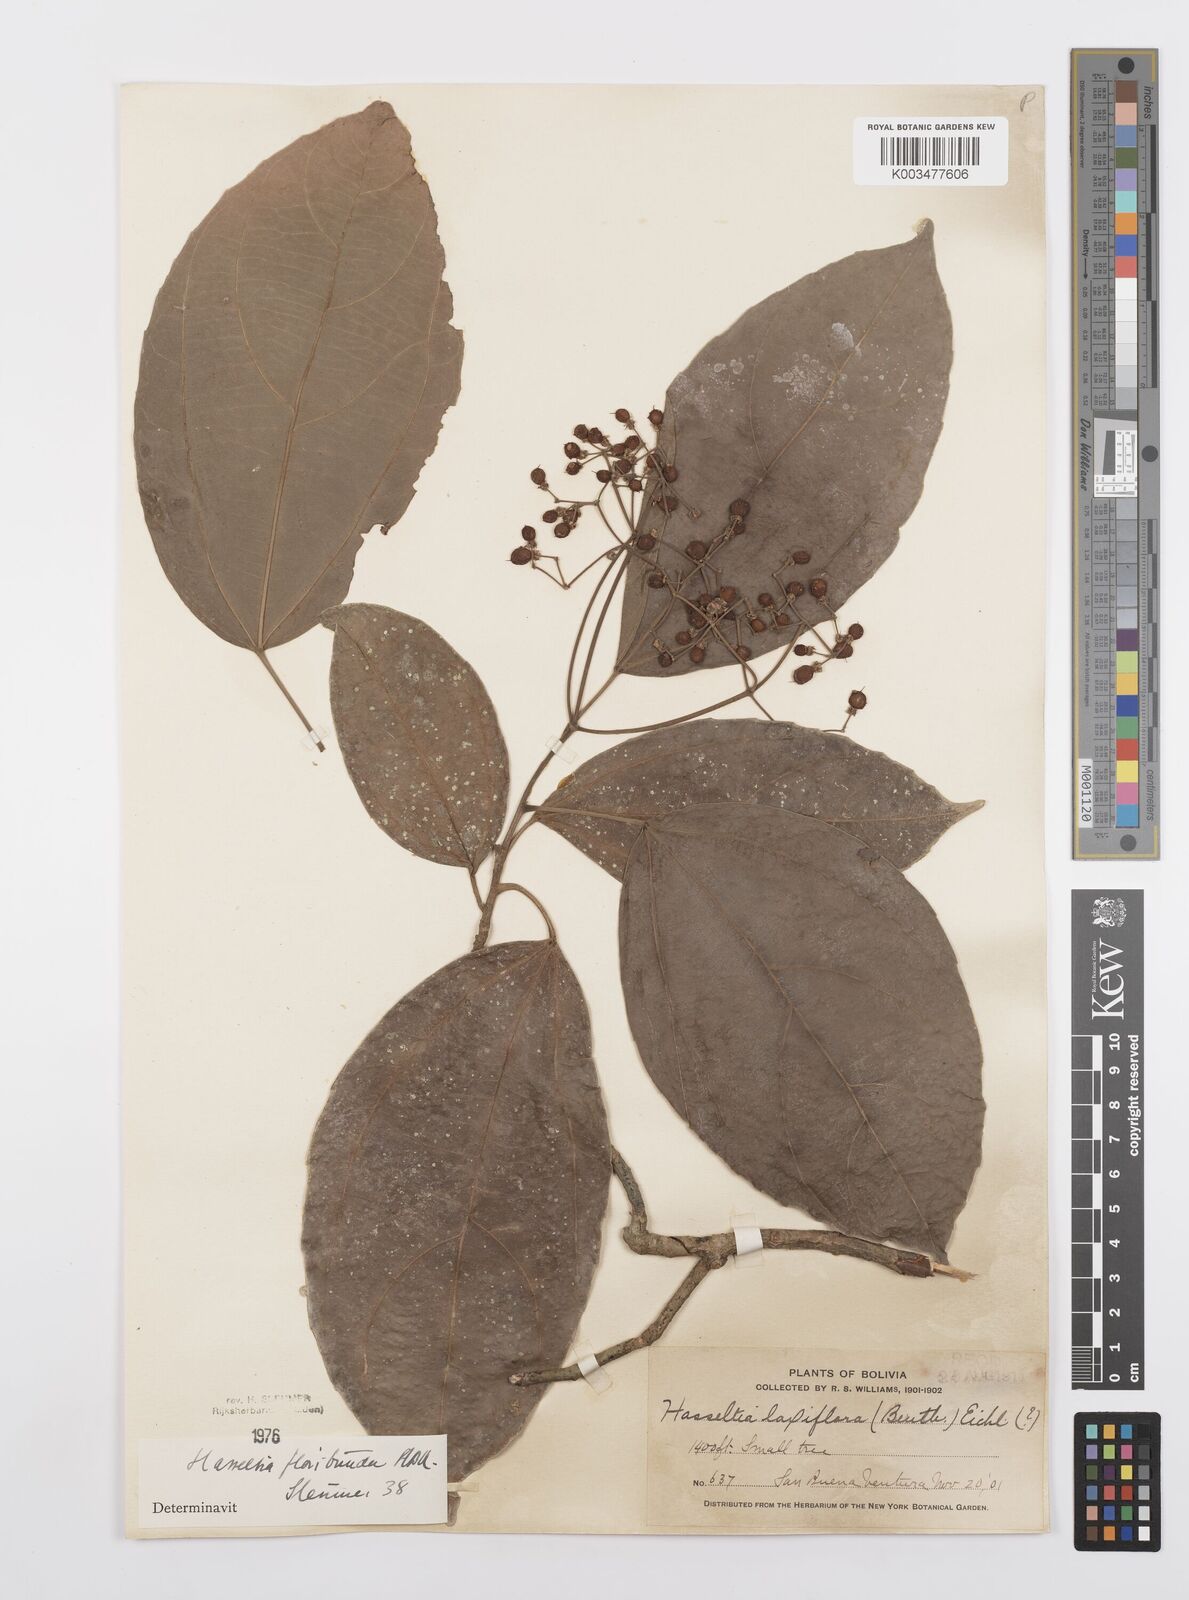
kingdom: Plantae
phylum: Tracheophyta
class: Magnoliopsida
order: Malpighiales
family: Salicaceae
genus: Hasseltia
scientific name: Hasseltia floribunda
